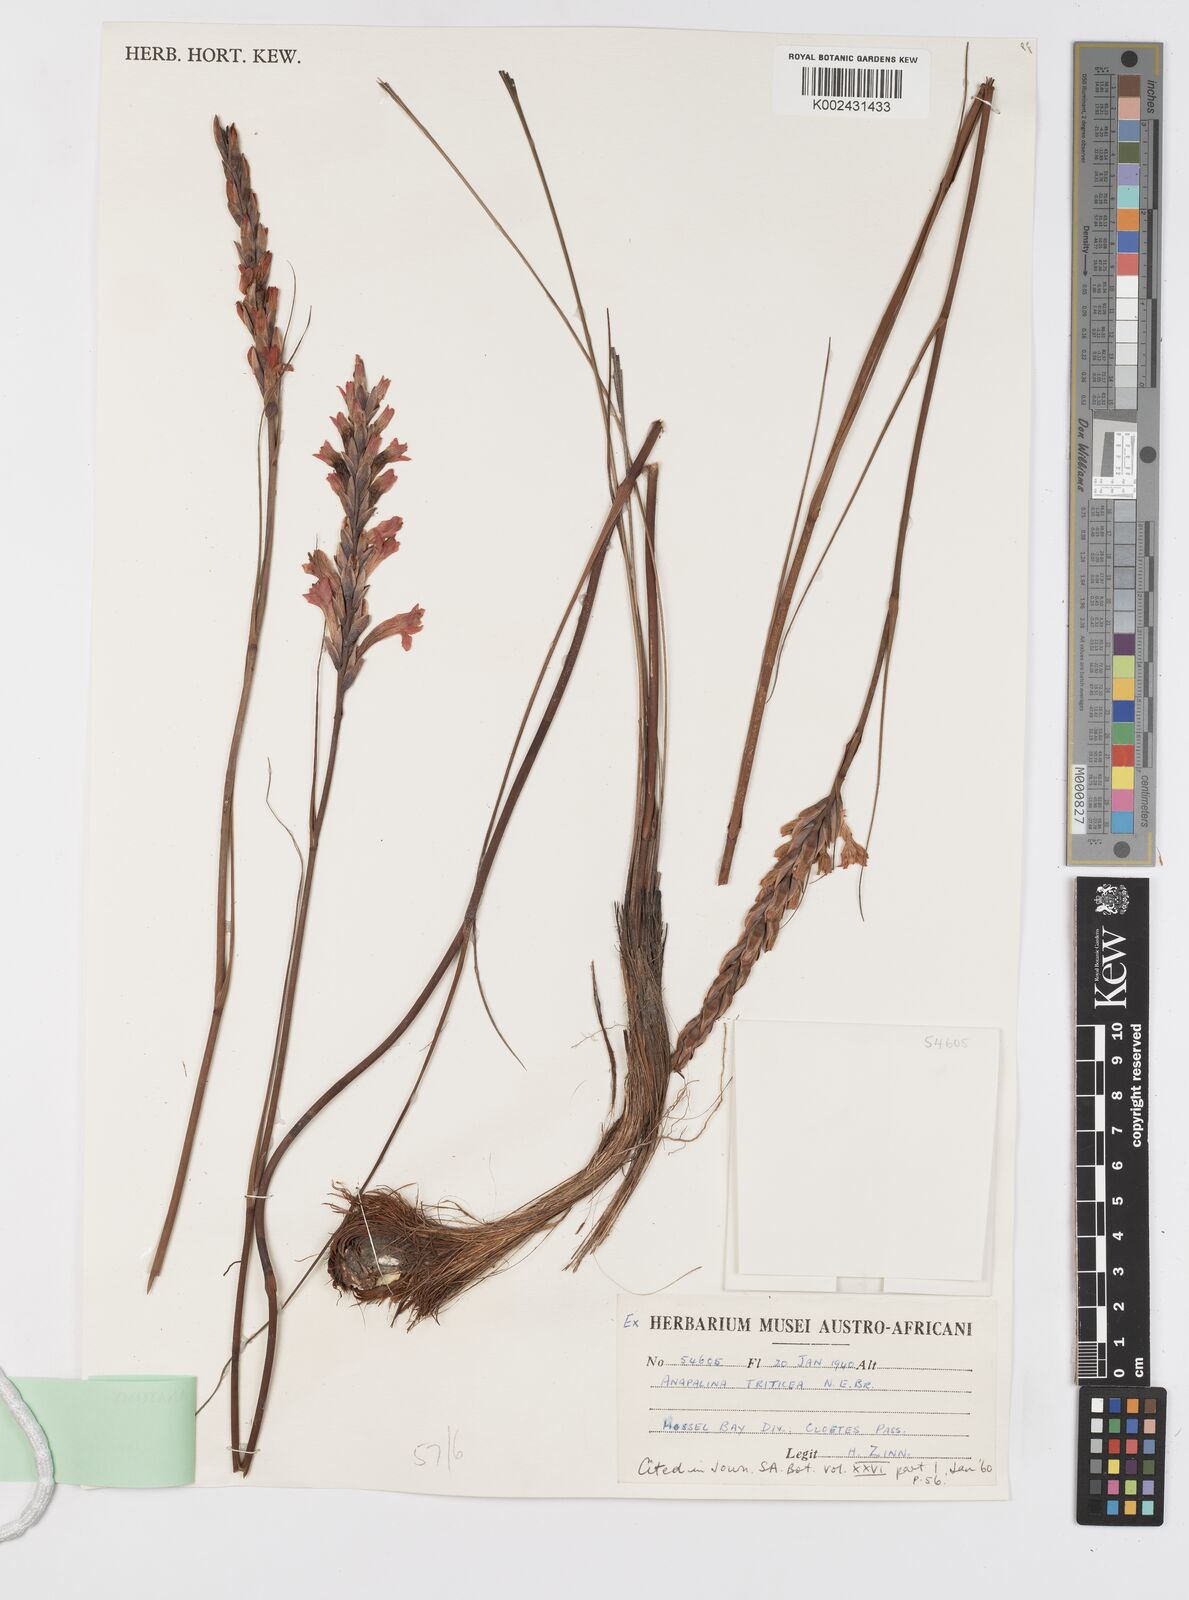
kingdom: Plantae
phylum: Tracheophyta
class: Liliopsida
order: Asparagales
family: Iridaceae
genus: Tritoniopsis
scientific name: Tritoniopsis triticea
